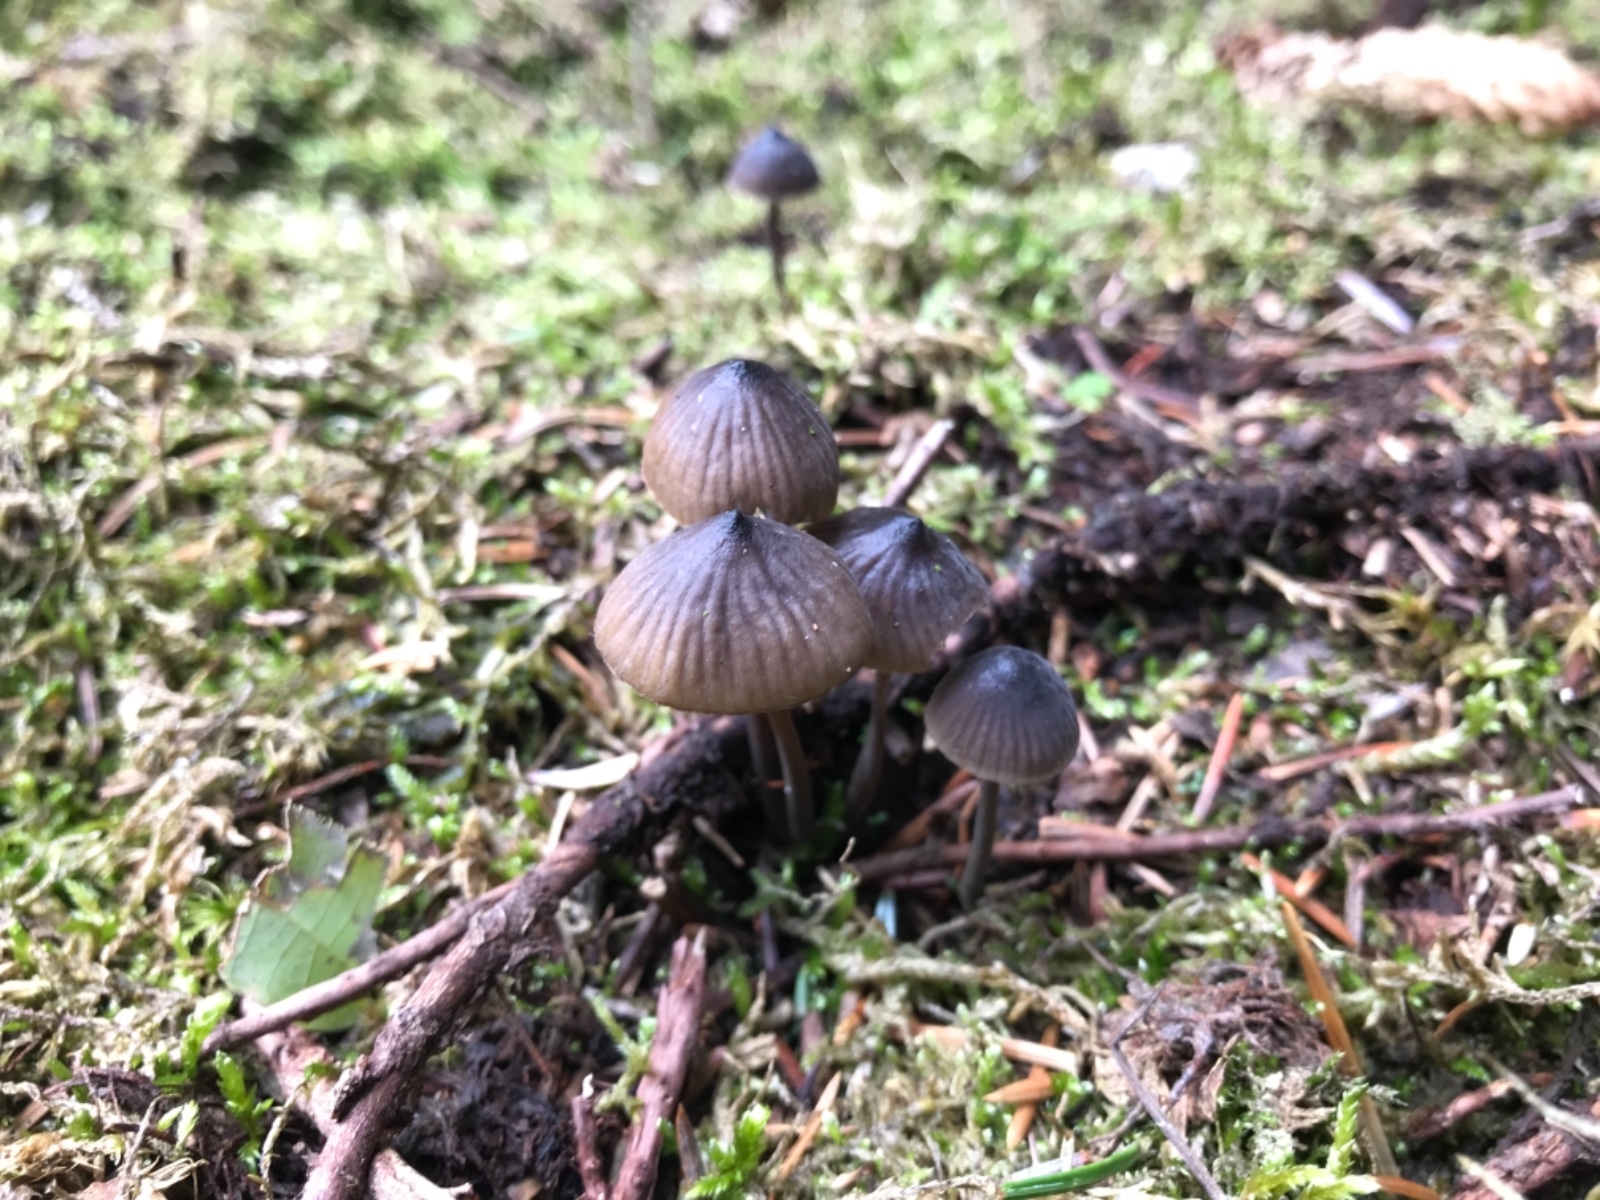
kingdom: Fungi
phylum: Basidiomycota
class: Agaricomycetes
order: Agaricales
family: Mycenaceae
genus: Mycena
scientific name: Mycena galopus
